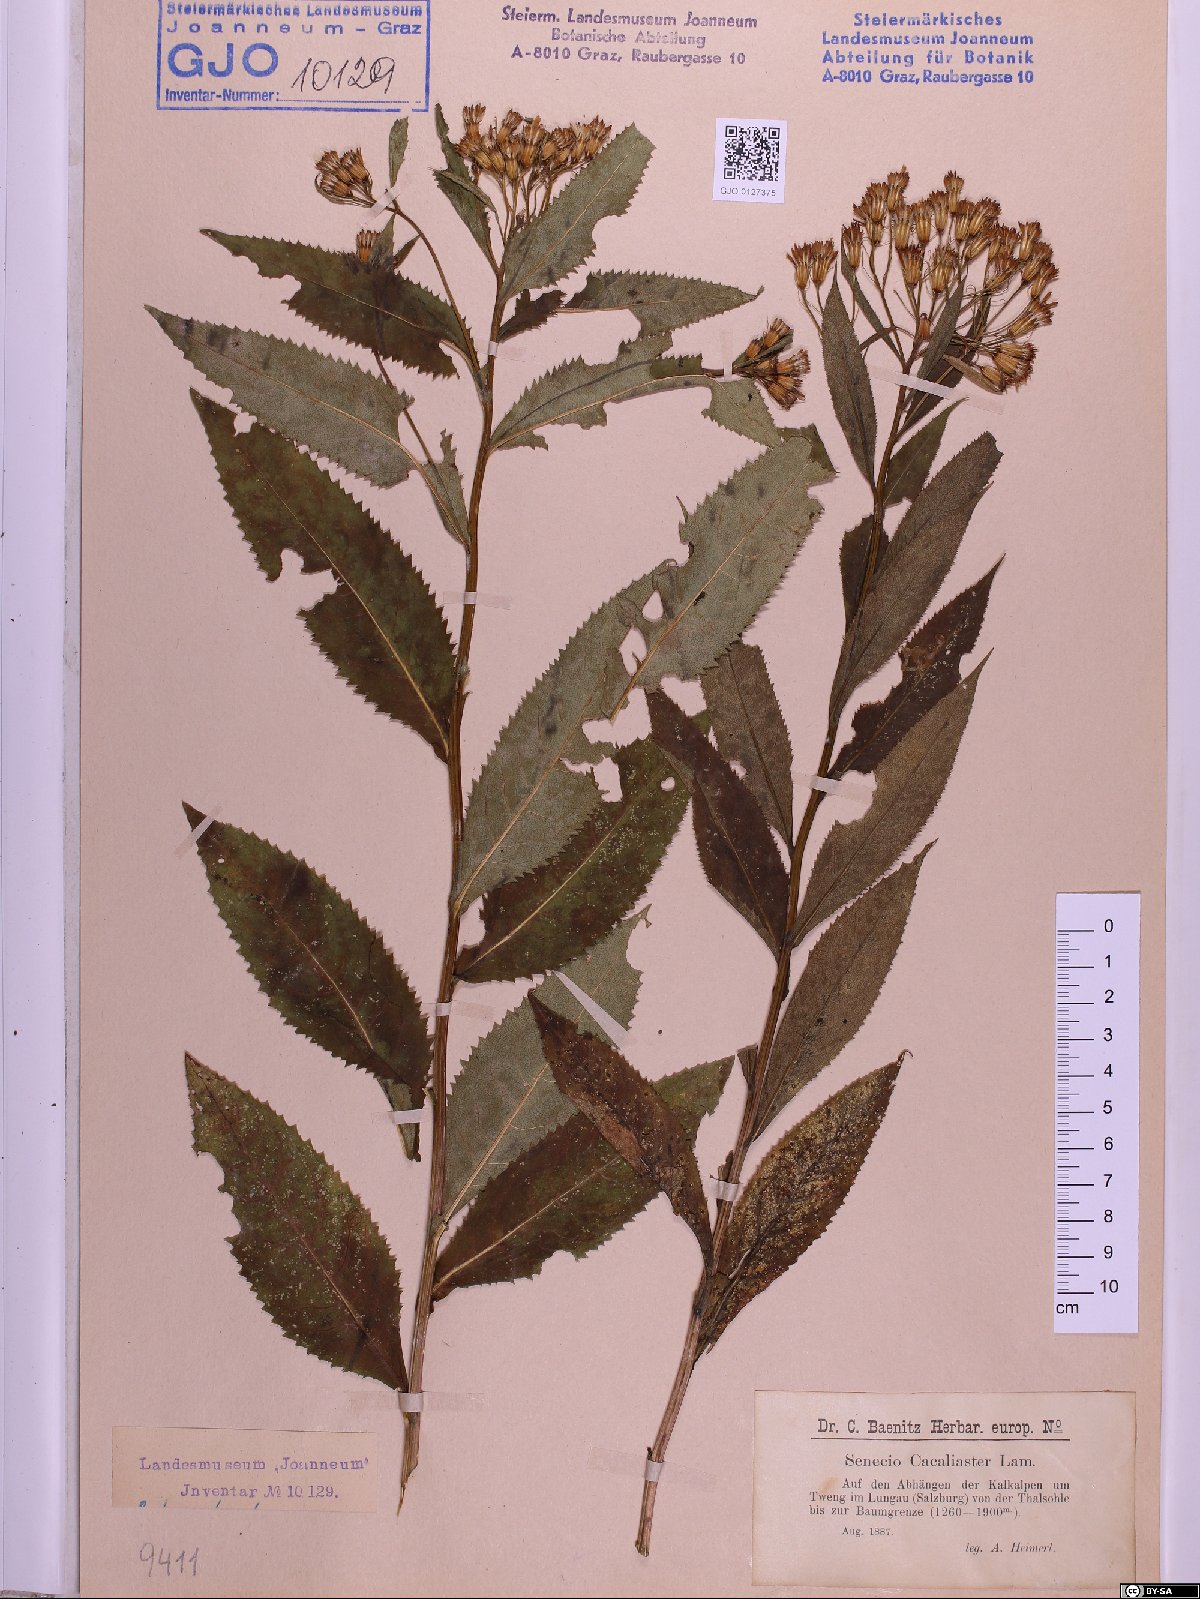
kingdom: Plantae
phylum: Tracheophyta
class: Magnoliopsida
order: Asterales
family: Asteraceae
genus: Senecio
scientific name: Senecio cacaliaster
